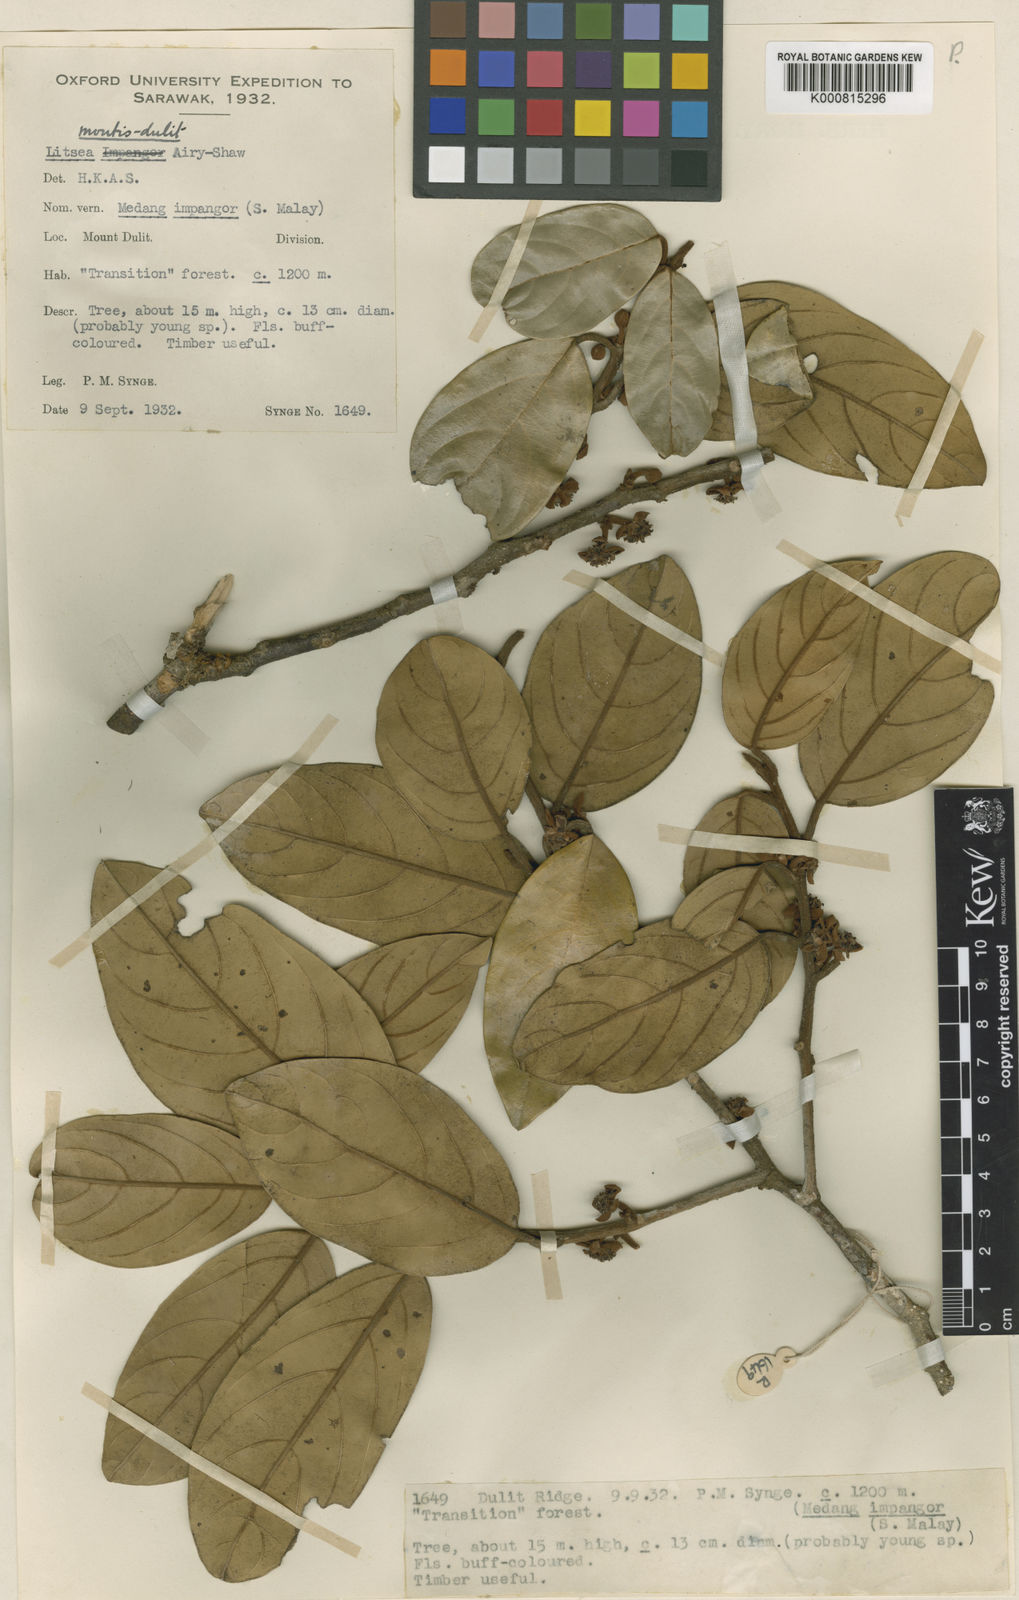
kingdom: Plantae
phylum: Tracheophyta
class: Magnoliopsida
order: Laurales
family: Lauraceae
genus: Litsea
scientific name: Litsea montis-dulit
